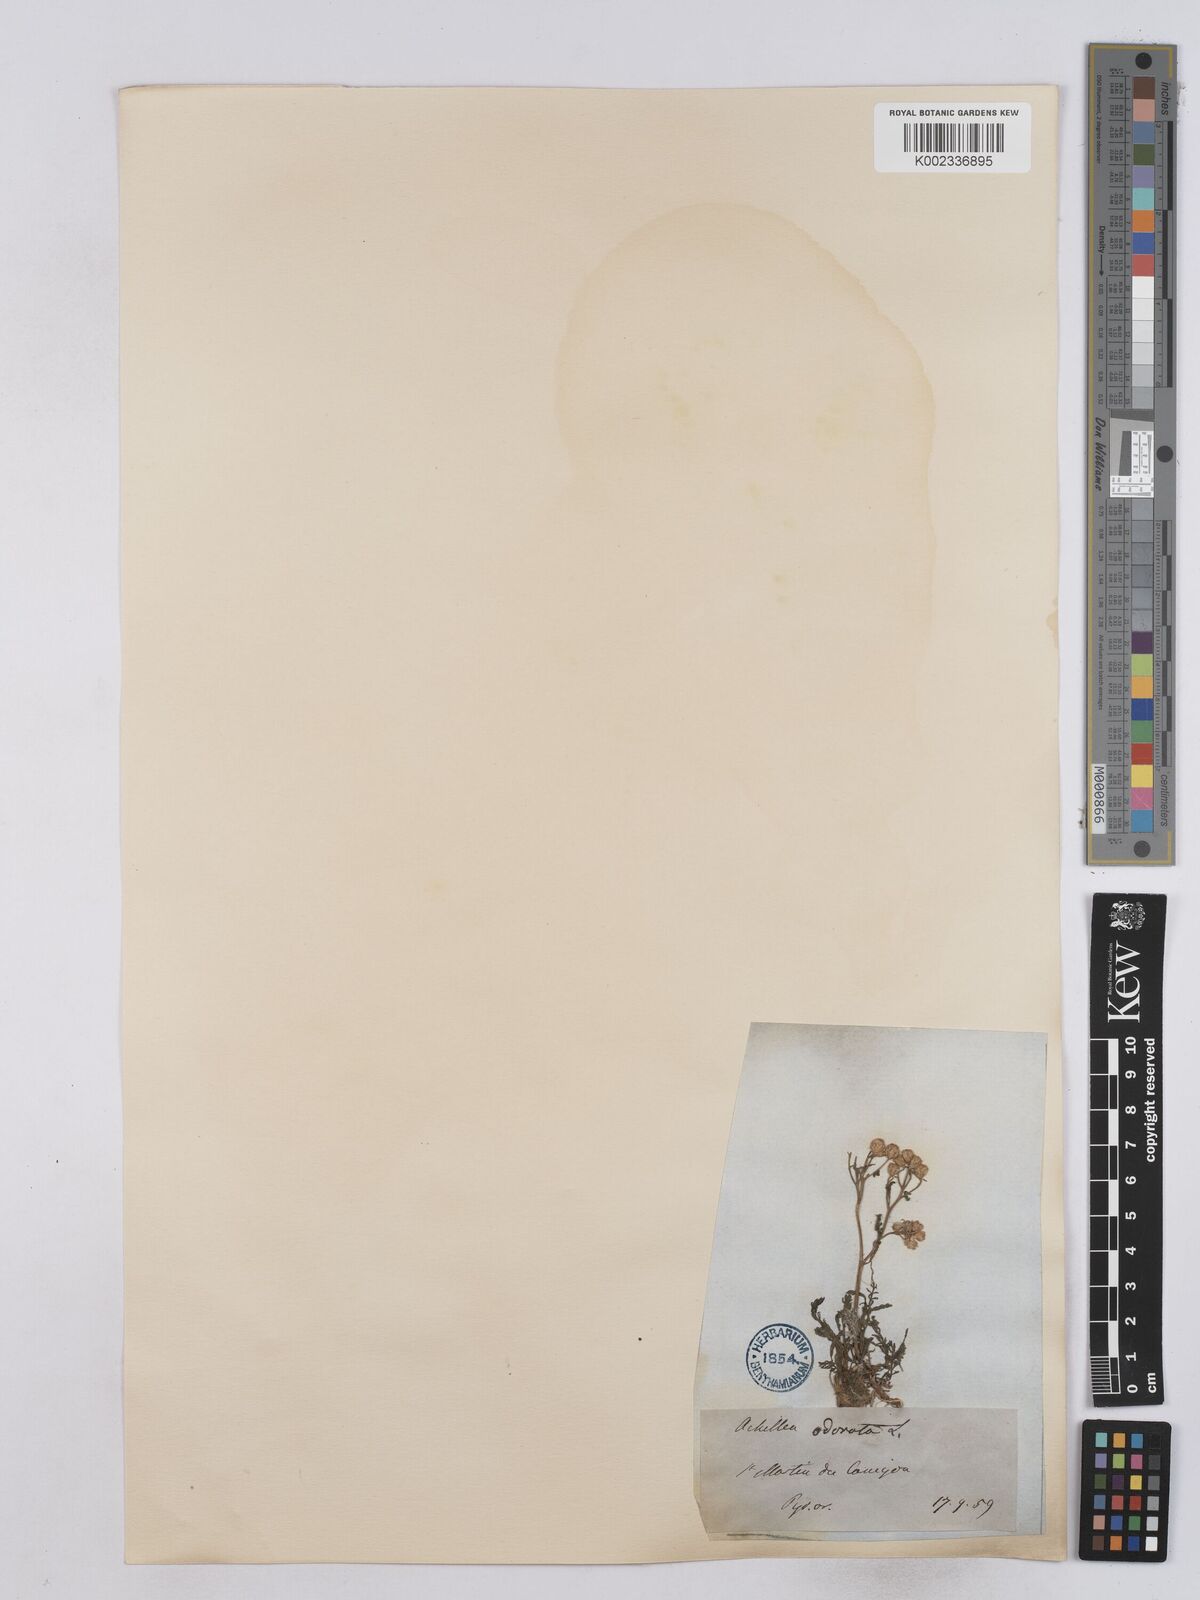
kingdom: Plantae
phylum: Tracheophyta
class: Magnoliopsida
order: Asterales
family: Asteraceae
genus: Achillea
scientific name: Achillea odorata
